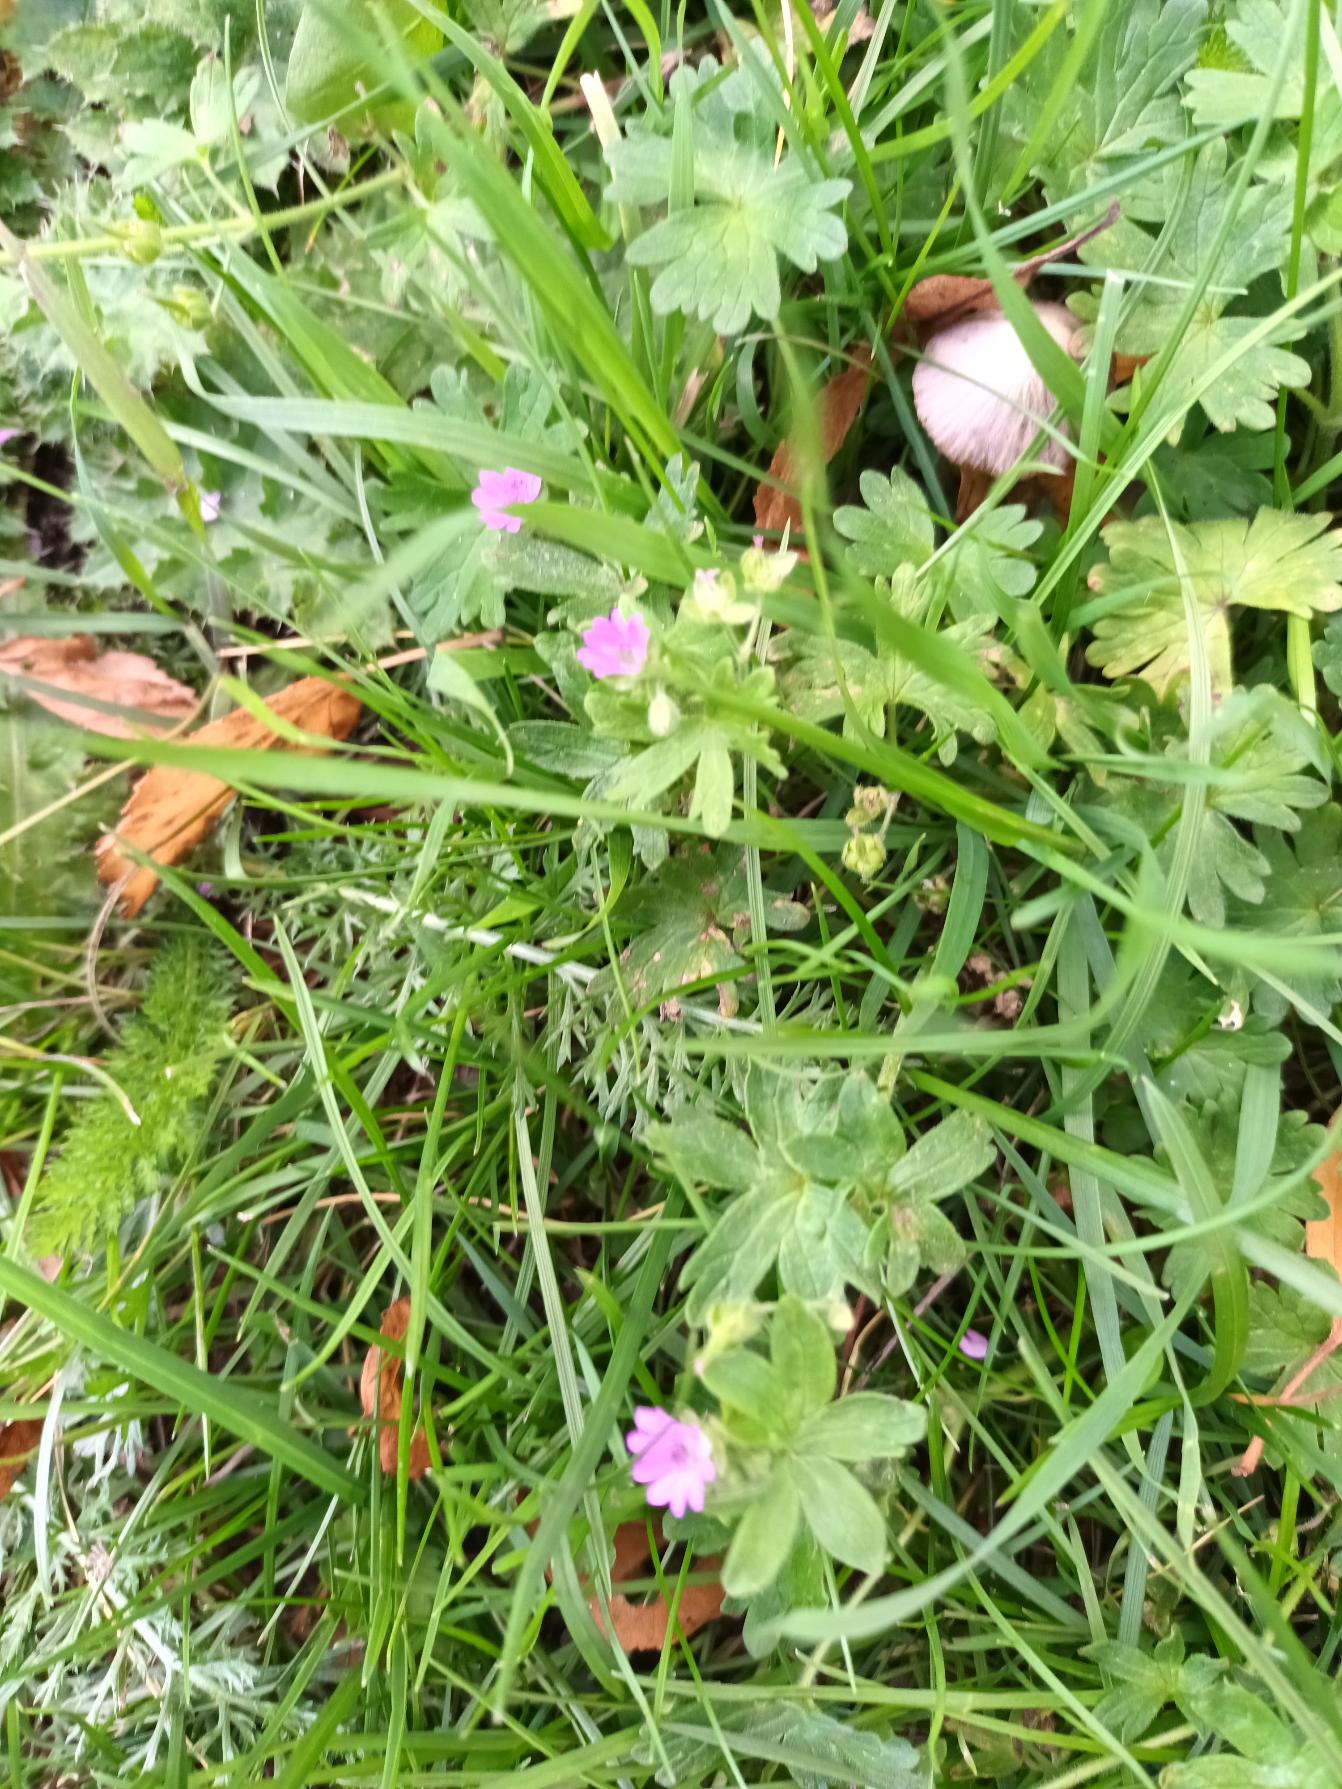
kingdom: Plantae
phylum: Tracheophyta
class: Magnoliopsida
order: Geraniales
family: Geraniaceae
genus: Geranium
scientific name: Geranium molle
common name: Blød storkenæb
